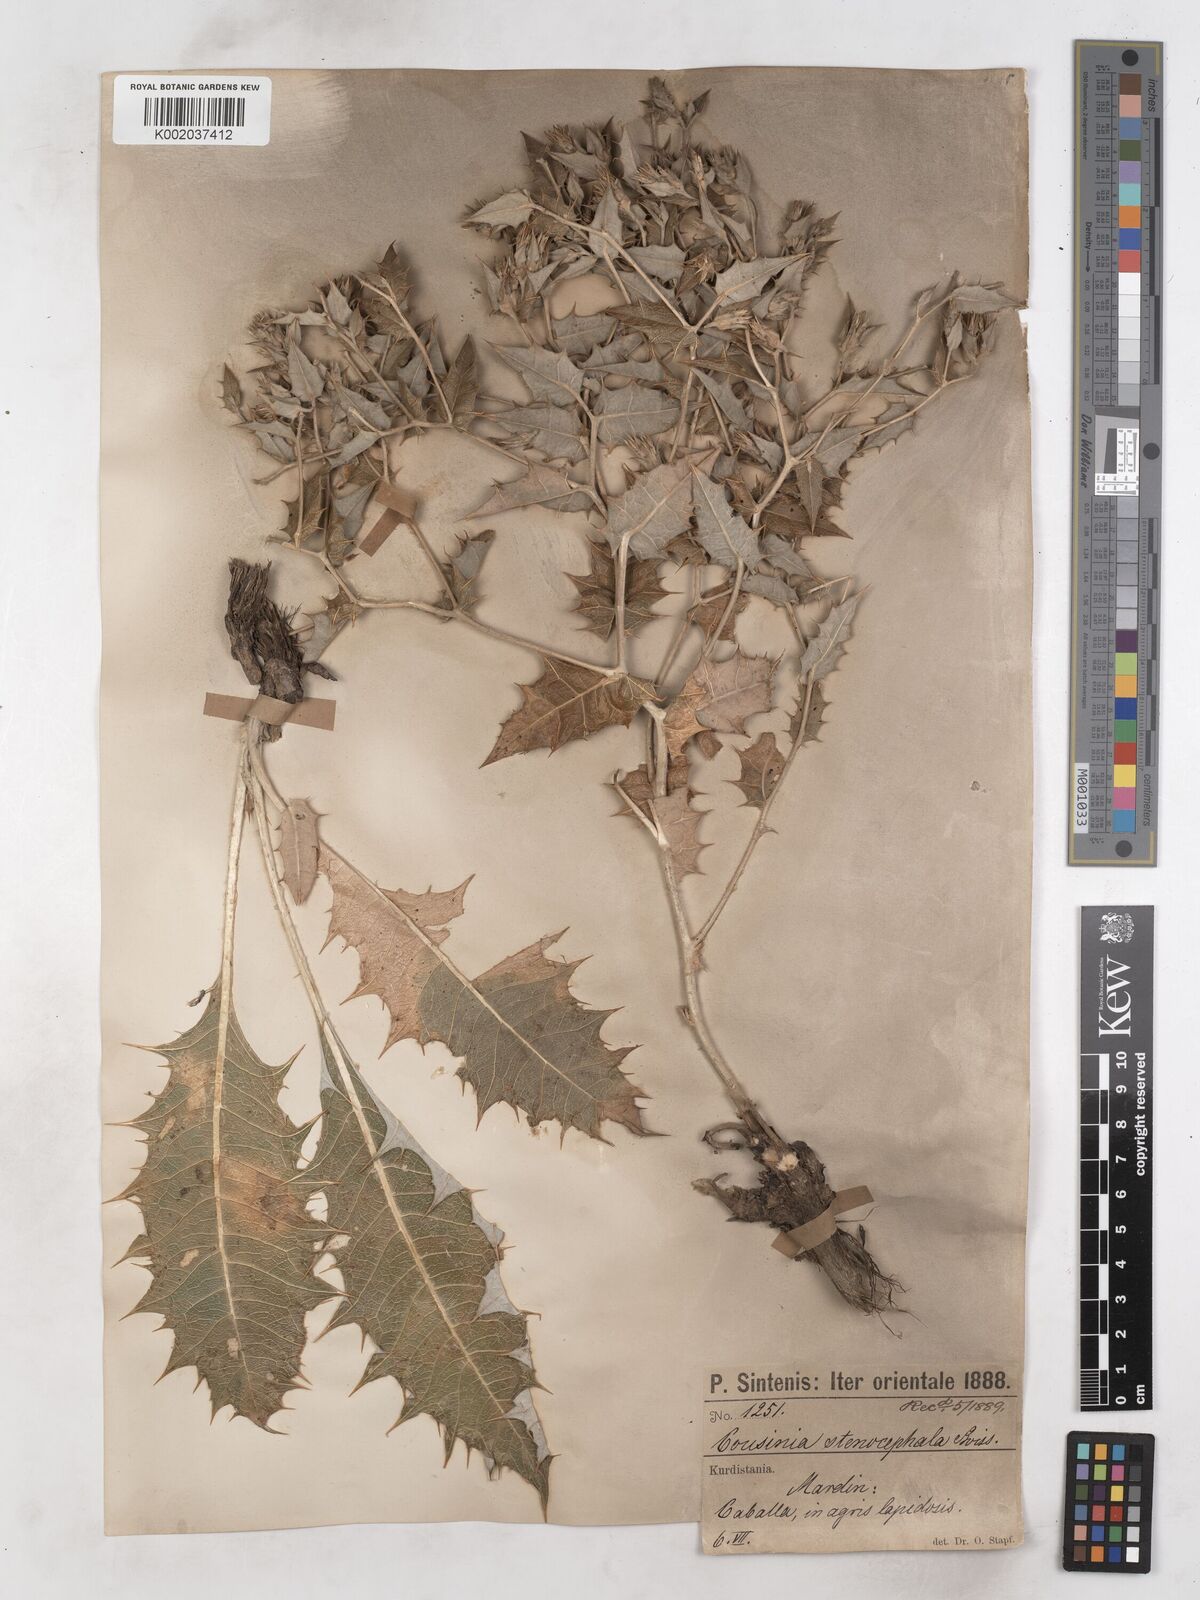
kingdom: Plantae
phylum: Tracheophyta
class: Magnoliopsida
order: Asterales
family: Asteraceae
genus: Cousinia
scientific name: Cousinia stenocephala
